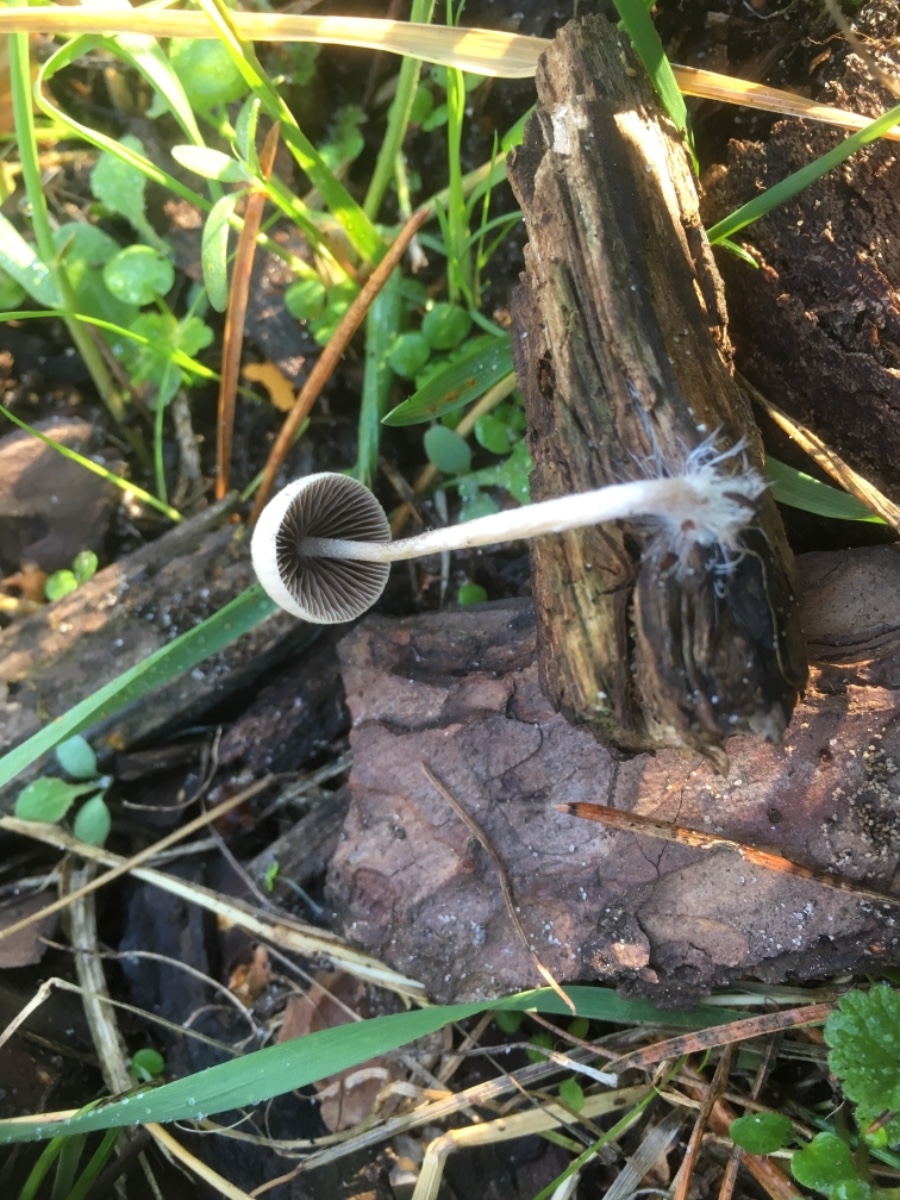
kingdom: Fungi
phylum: Basidiomycota
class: Agaricomycetes
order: Agaricales
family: Psathyrellaceae
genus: Psathyrella
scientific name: Psathyrella
